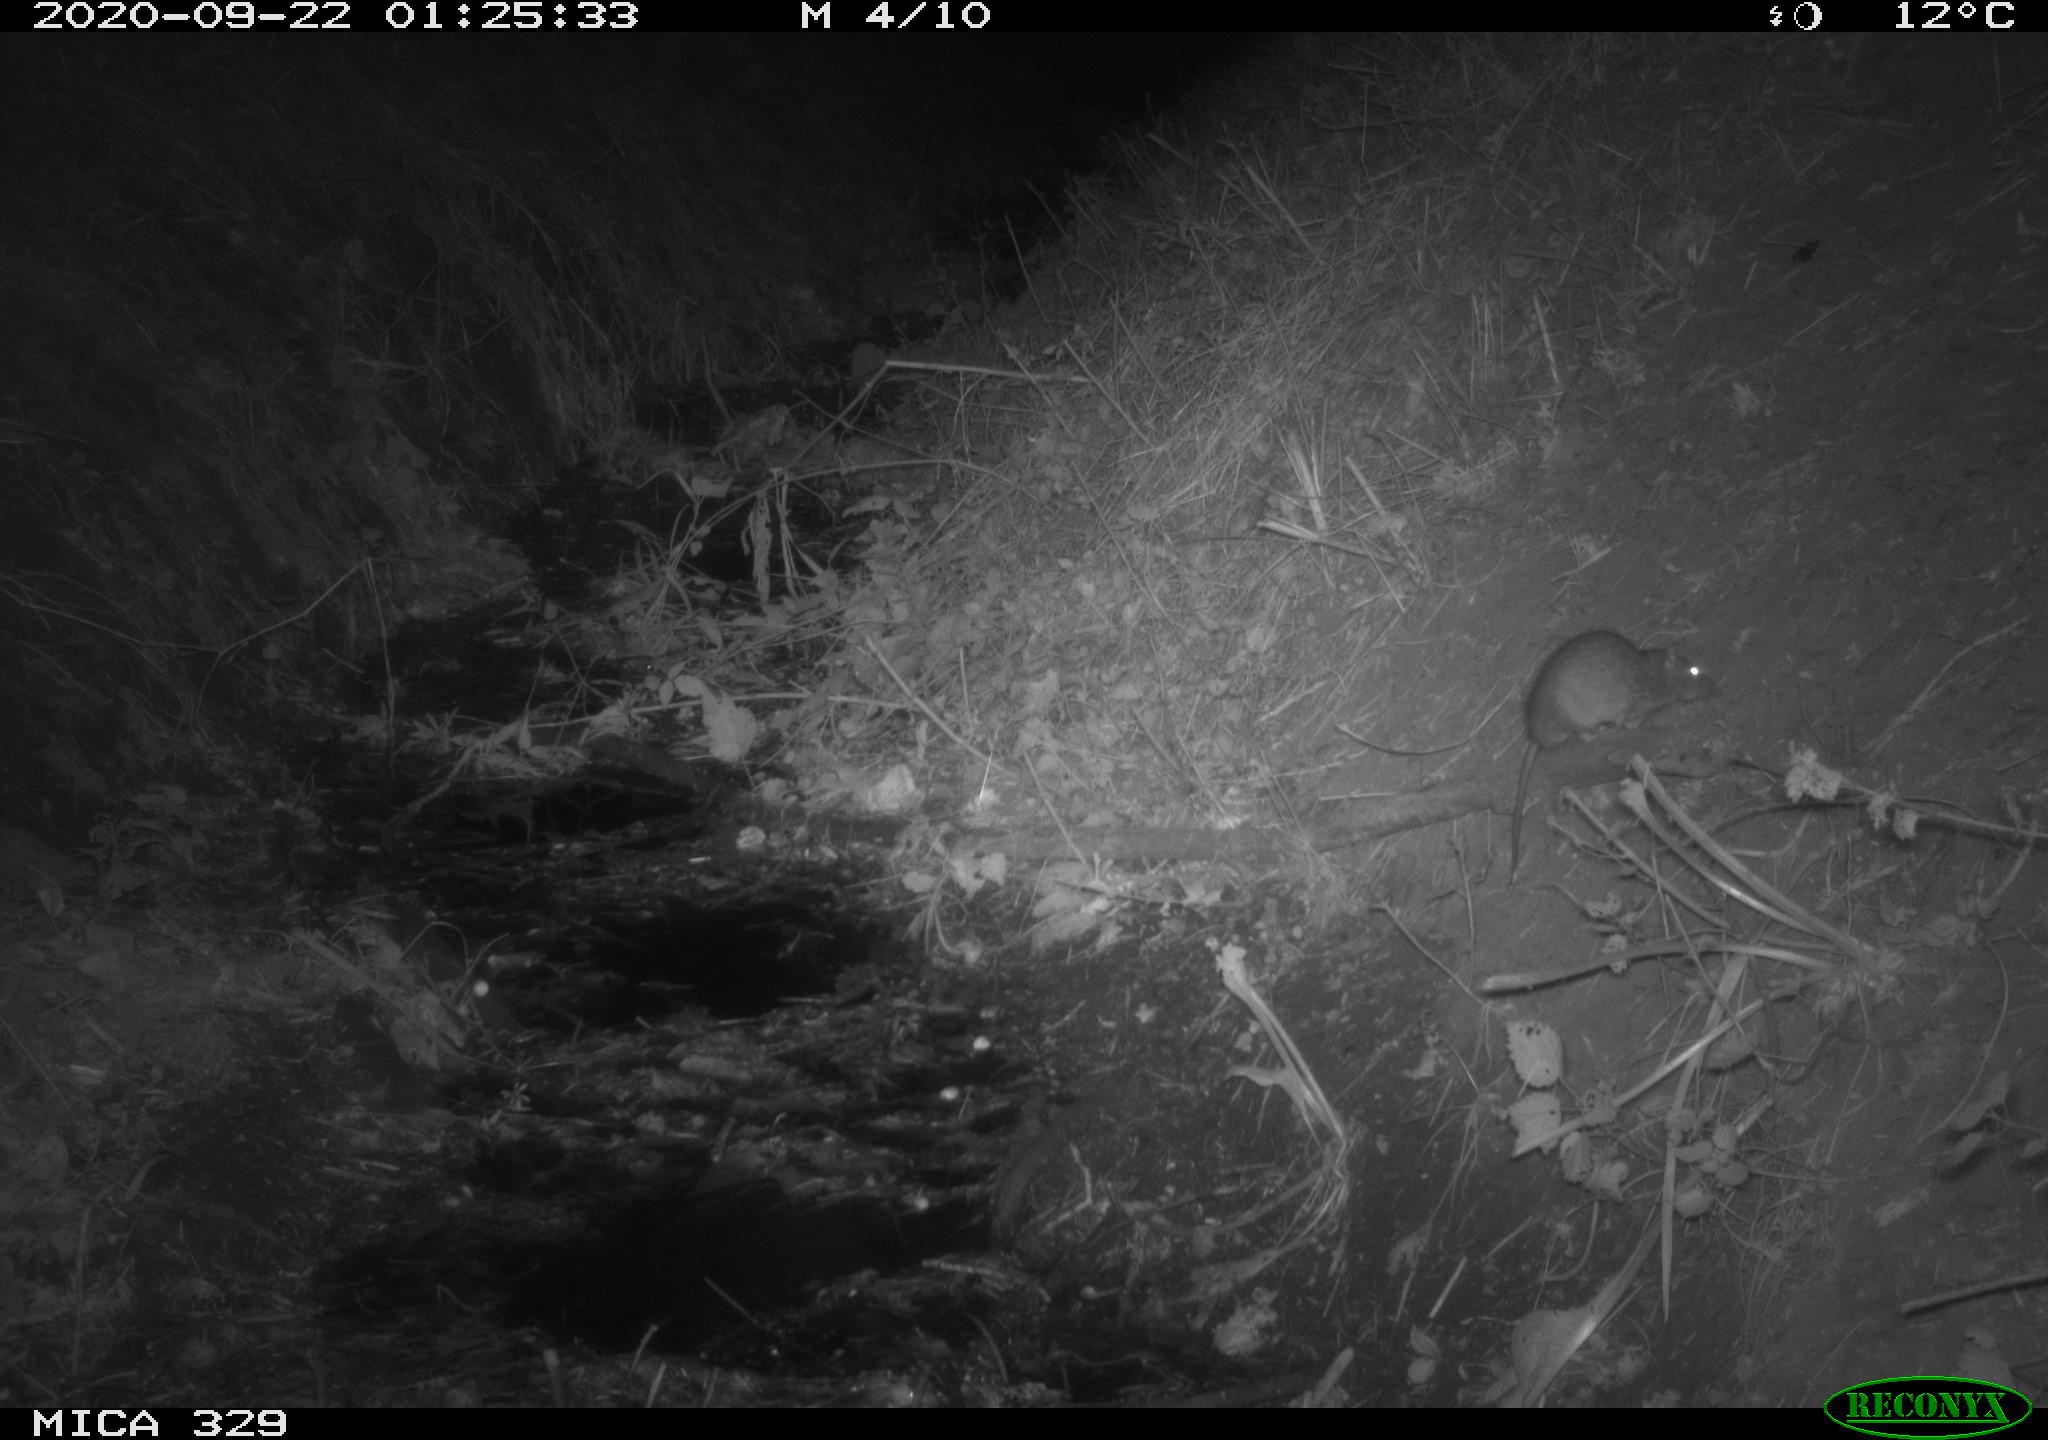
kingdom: Animalia
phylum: Chordata
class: Mammalia
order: Rodentia
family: Muridae
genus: Rattus
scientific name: Rattus norvegicus
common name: Brown rat
